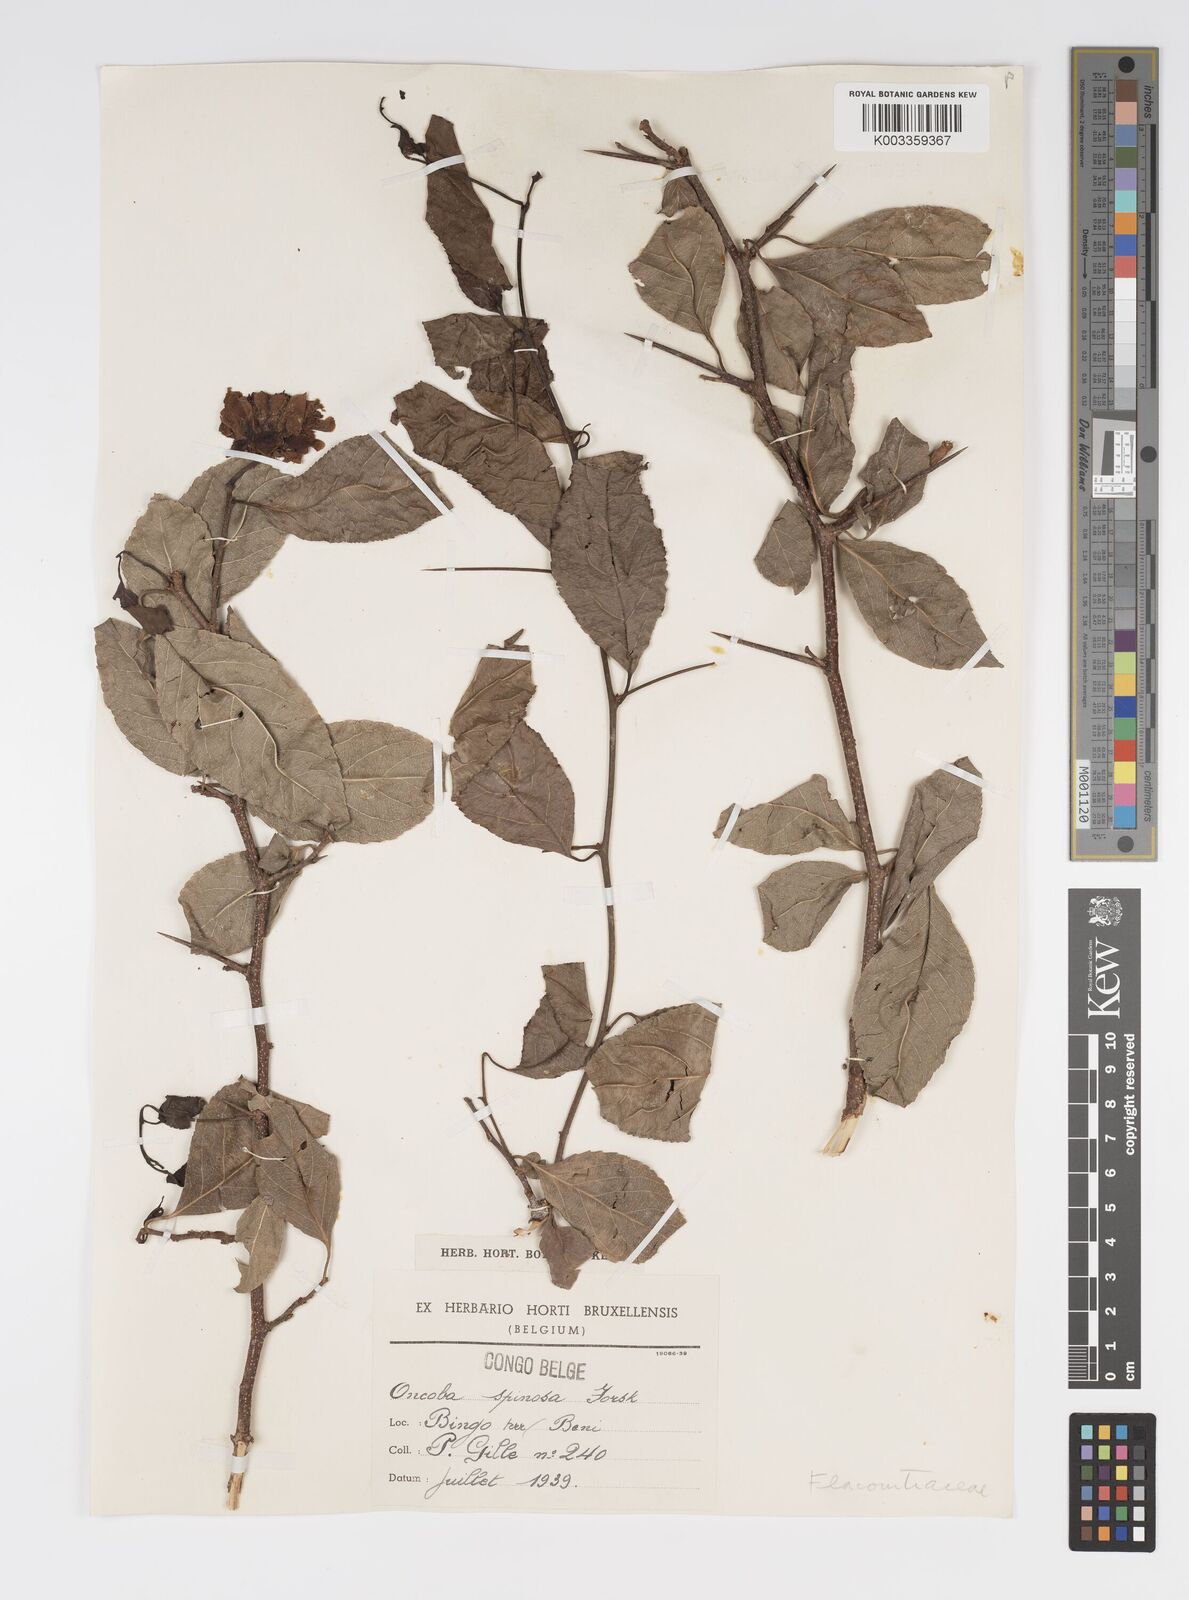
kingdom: Plantae
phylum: Tracheophyta
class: Magnoliopsida
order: Malpighiales
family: Salicaceae
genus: Oncoba
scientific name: Oncoba spinosa
